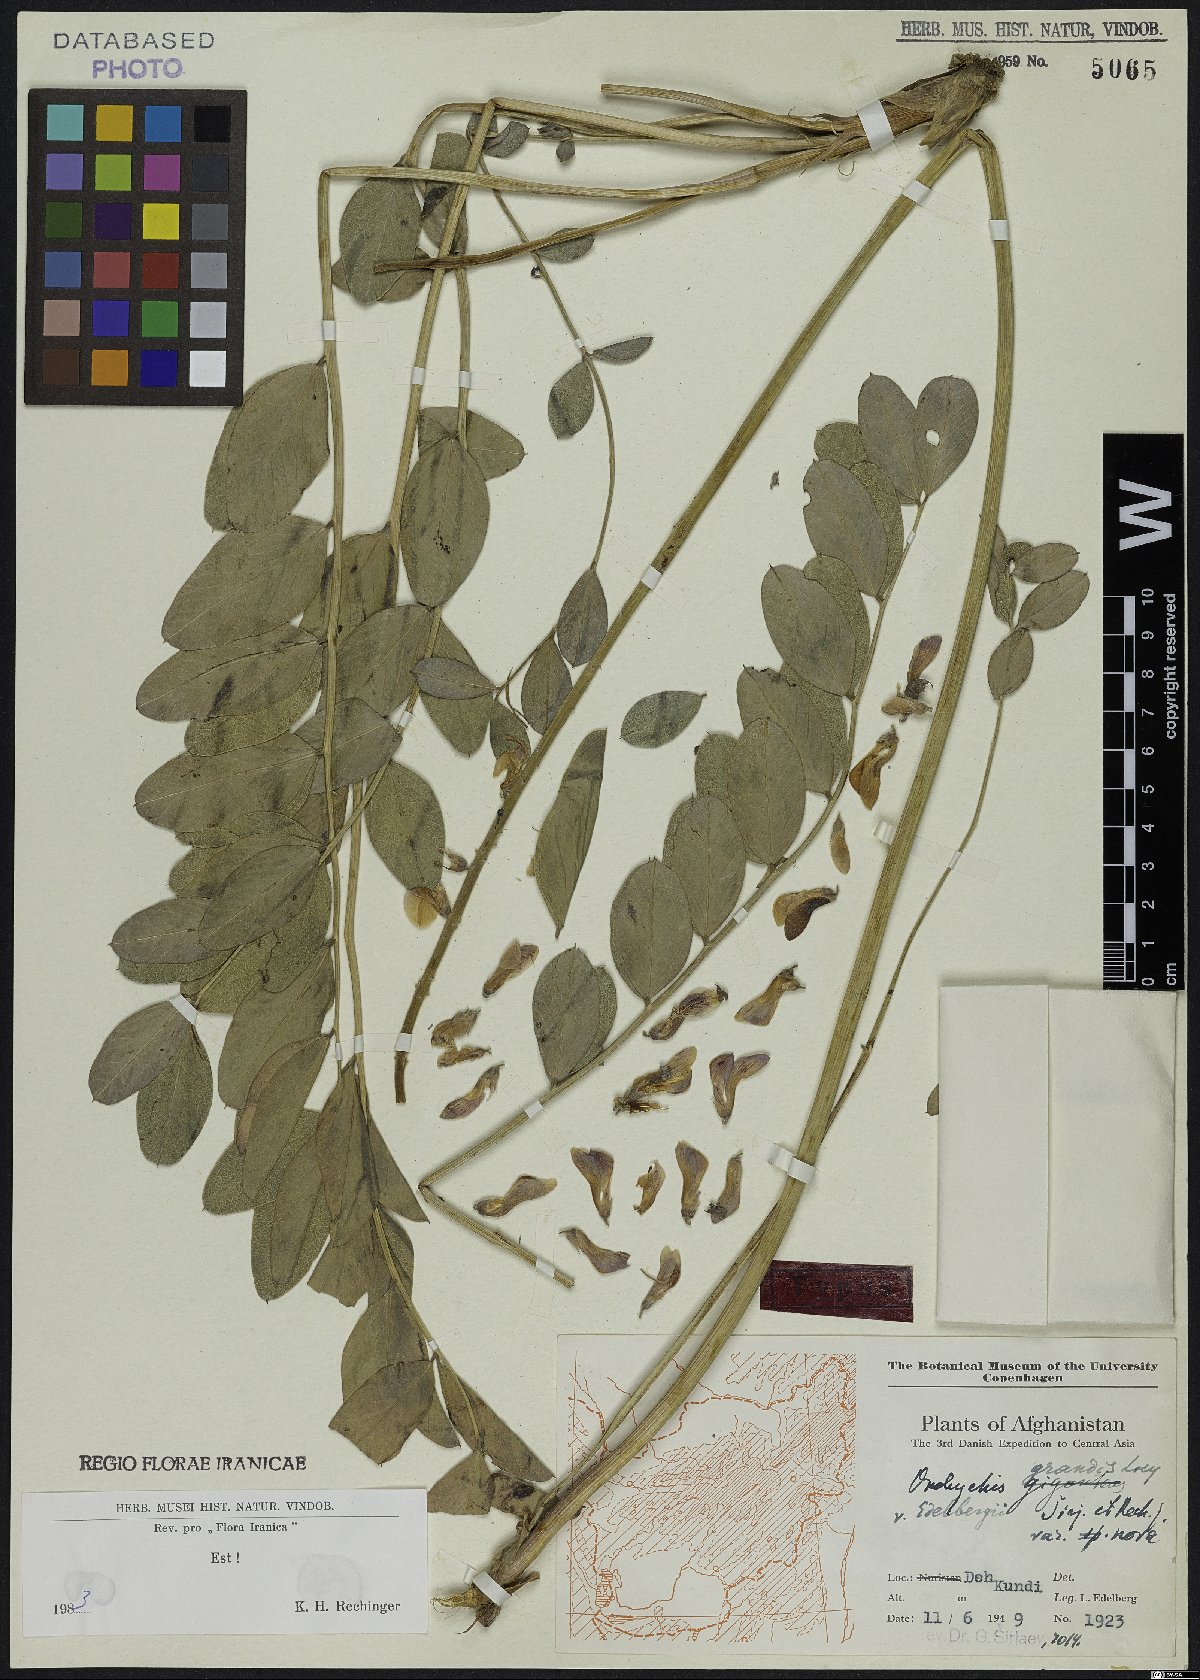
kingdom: Plantae
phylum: Tracheophyta
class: Magnoliopsida
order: Fabales
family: Fabaceae
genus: Onobrychis
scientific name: Onobrychis grandis
